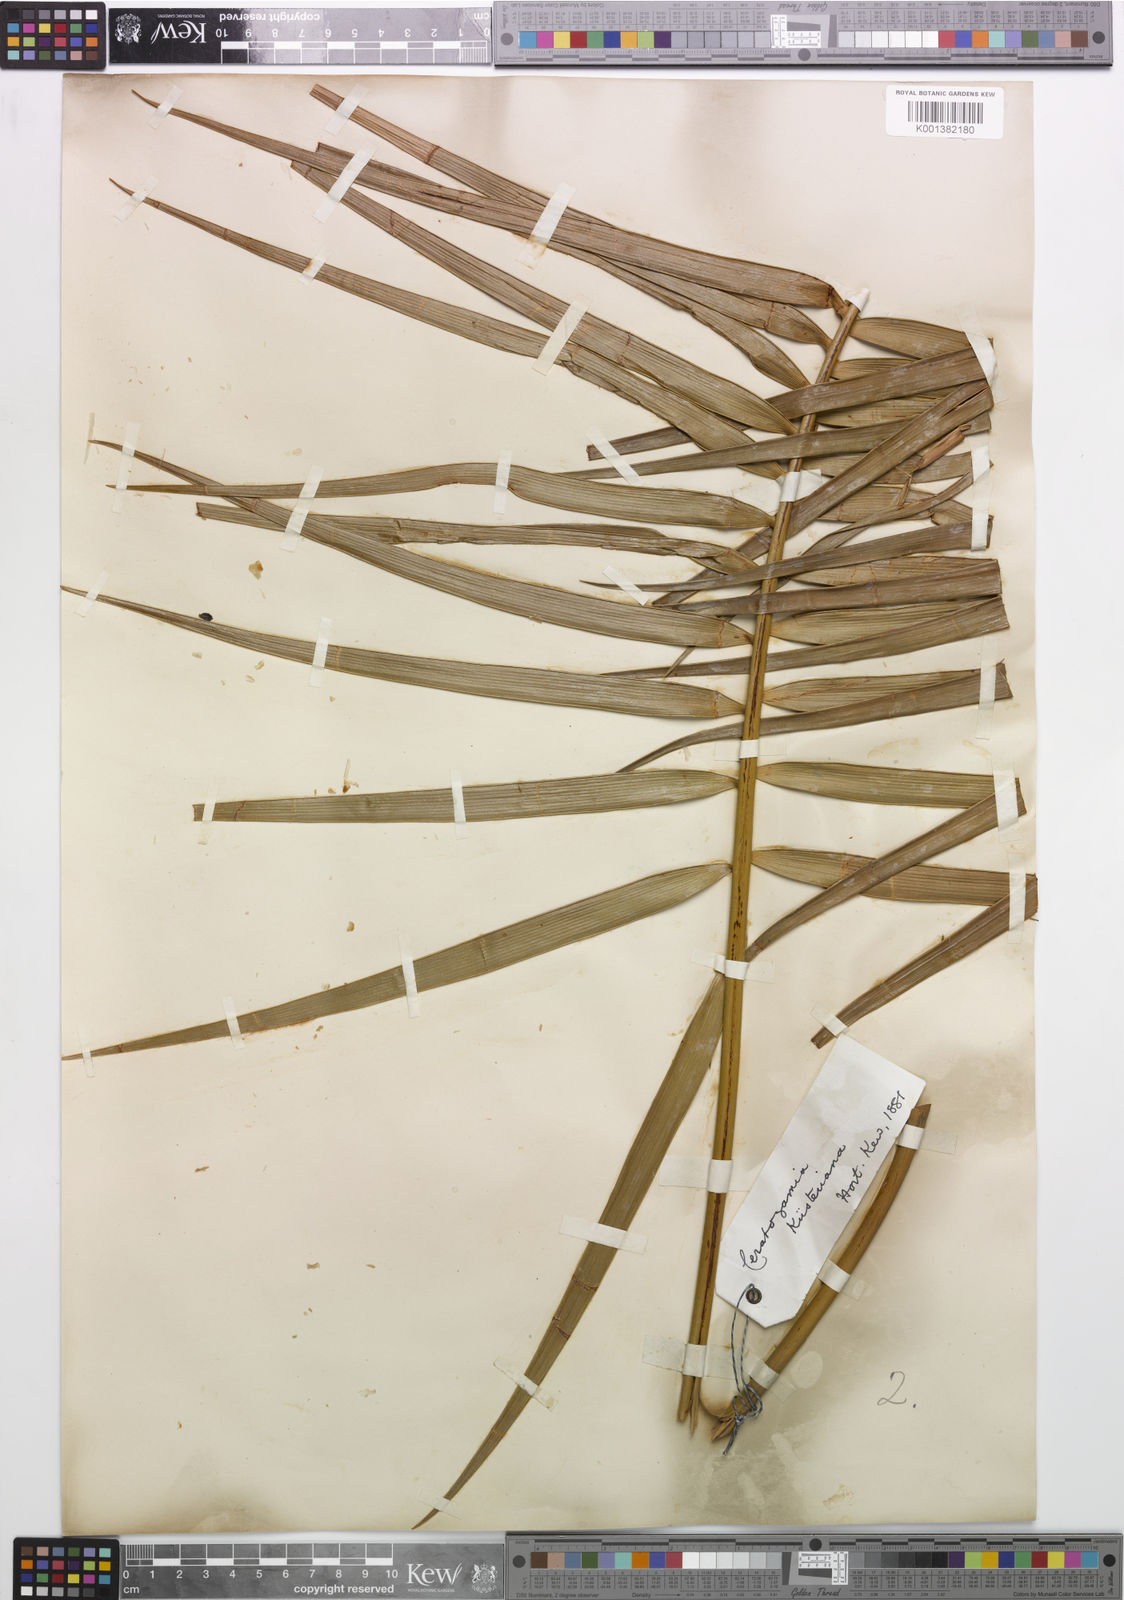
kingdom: Plantae
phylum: Tracheophyta
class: Cycadopsida
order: Cycadales
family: Zamiaceae
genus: Ceratozamia
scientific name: Ceratozamia kuesteriana
